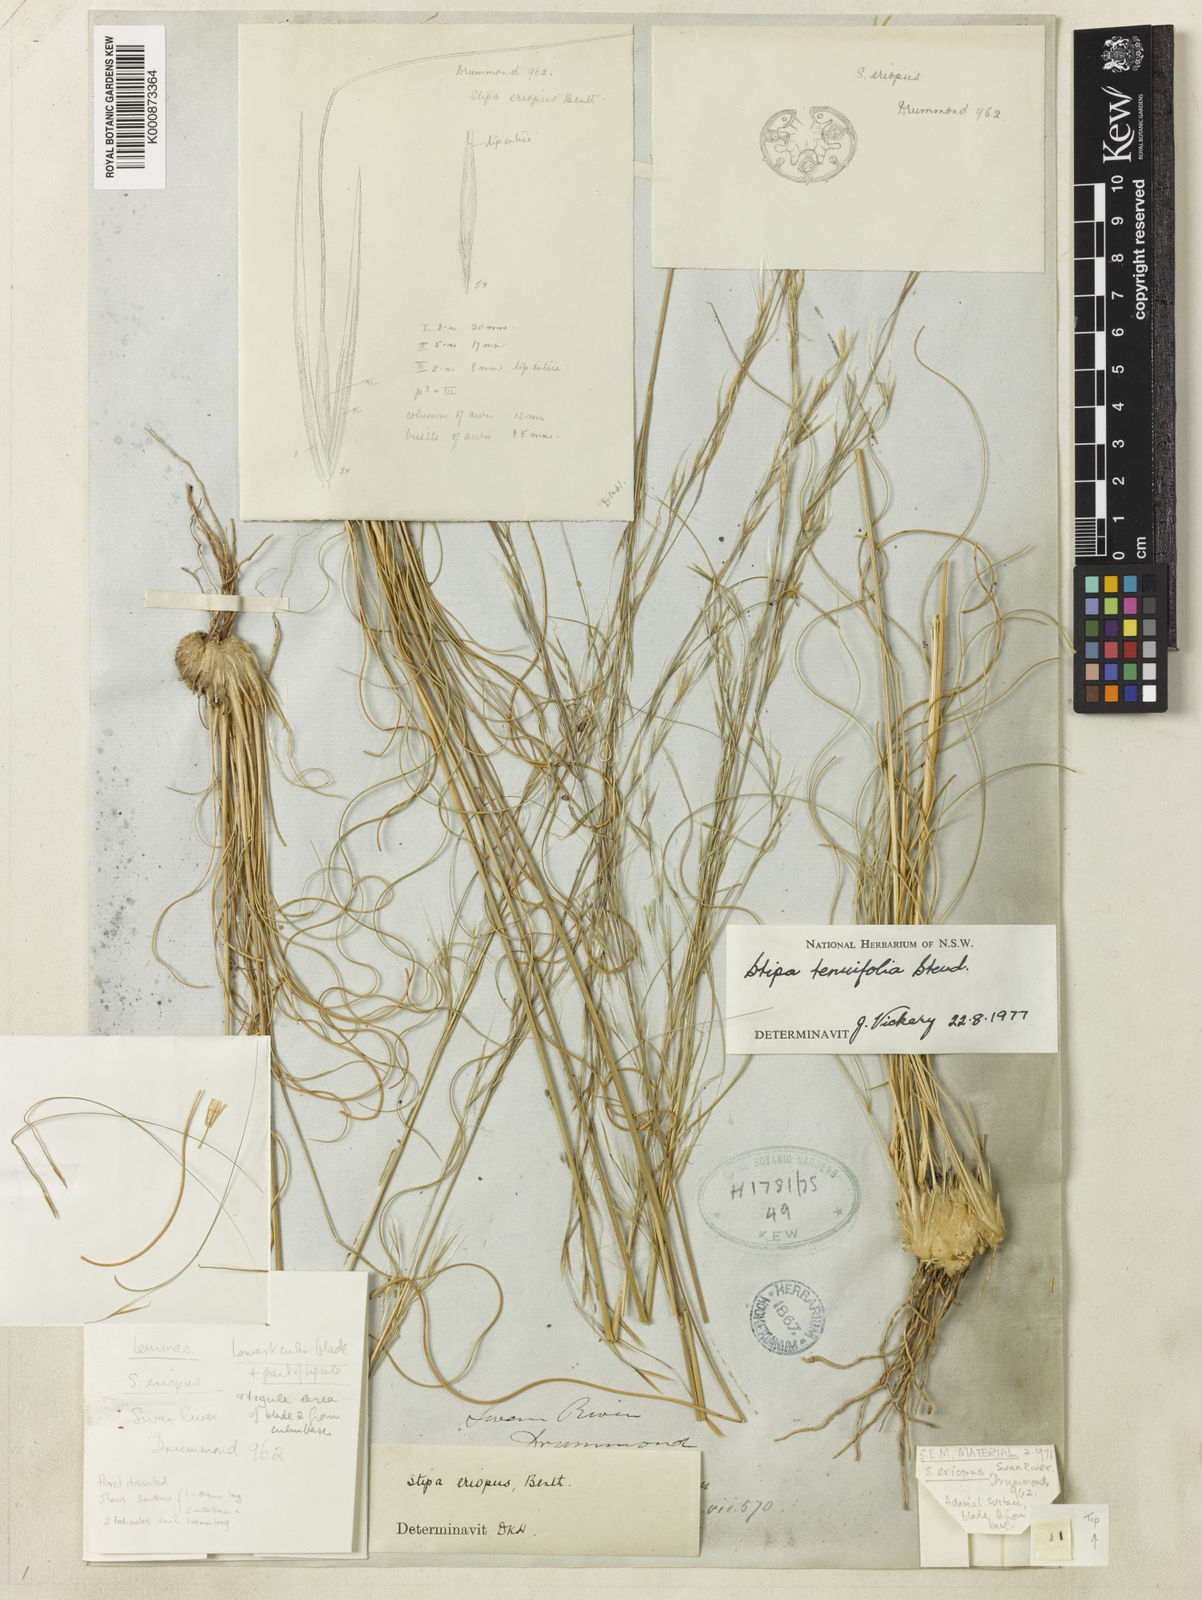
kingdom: Plantae
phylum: Tracheophyta
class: Liliopsida
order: Poales
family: Poaceae
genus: Austrostipa
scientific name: Austrostipa scabra
